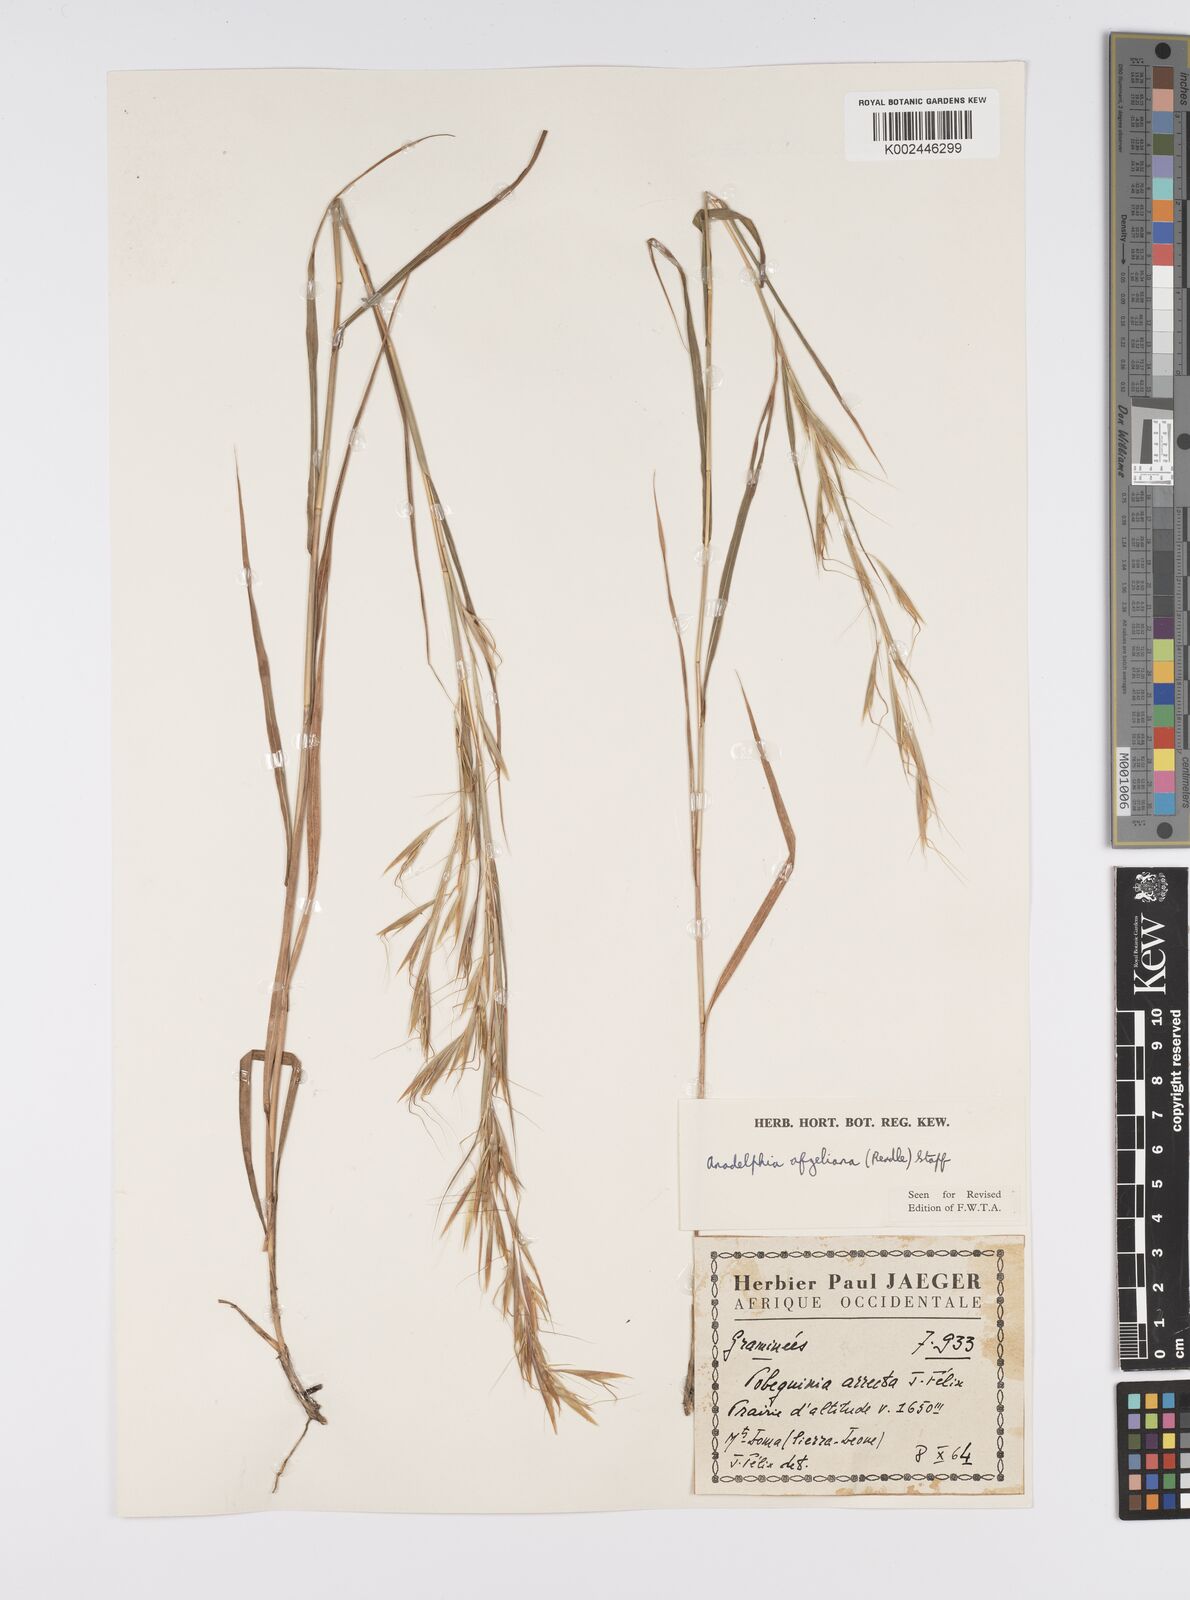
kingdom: Plantae
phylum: Tracheophyta
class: Liliopsida
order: Poales
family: Poaceae
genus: Anadelphia
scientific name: Anadelphia afzeliana
